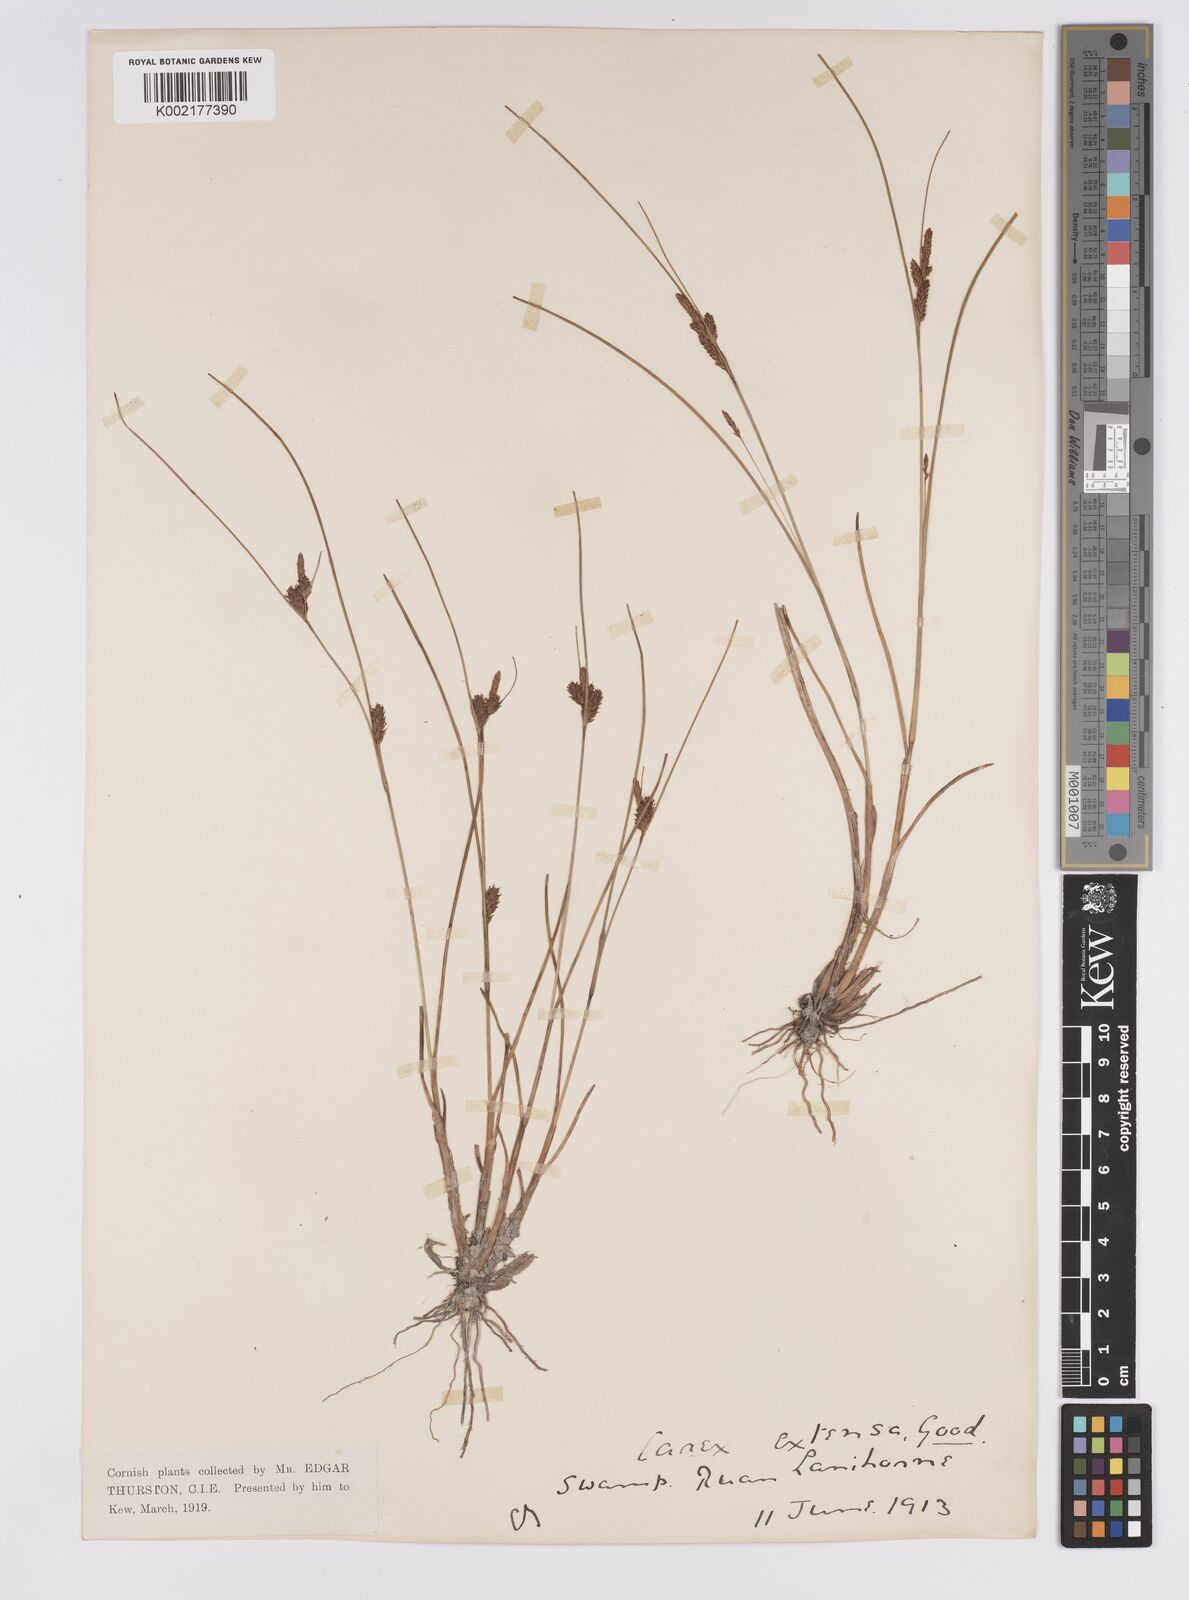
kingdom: Plantae
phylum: Tracheophyta
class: Liliopsida
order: Poales
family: Cyperaceae
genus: Carex
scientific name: Carex extensa
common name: Long-bracted sedge
